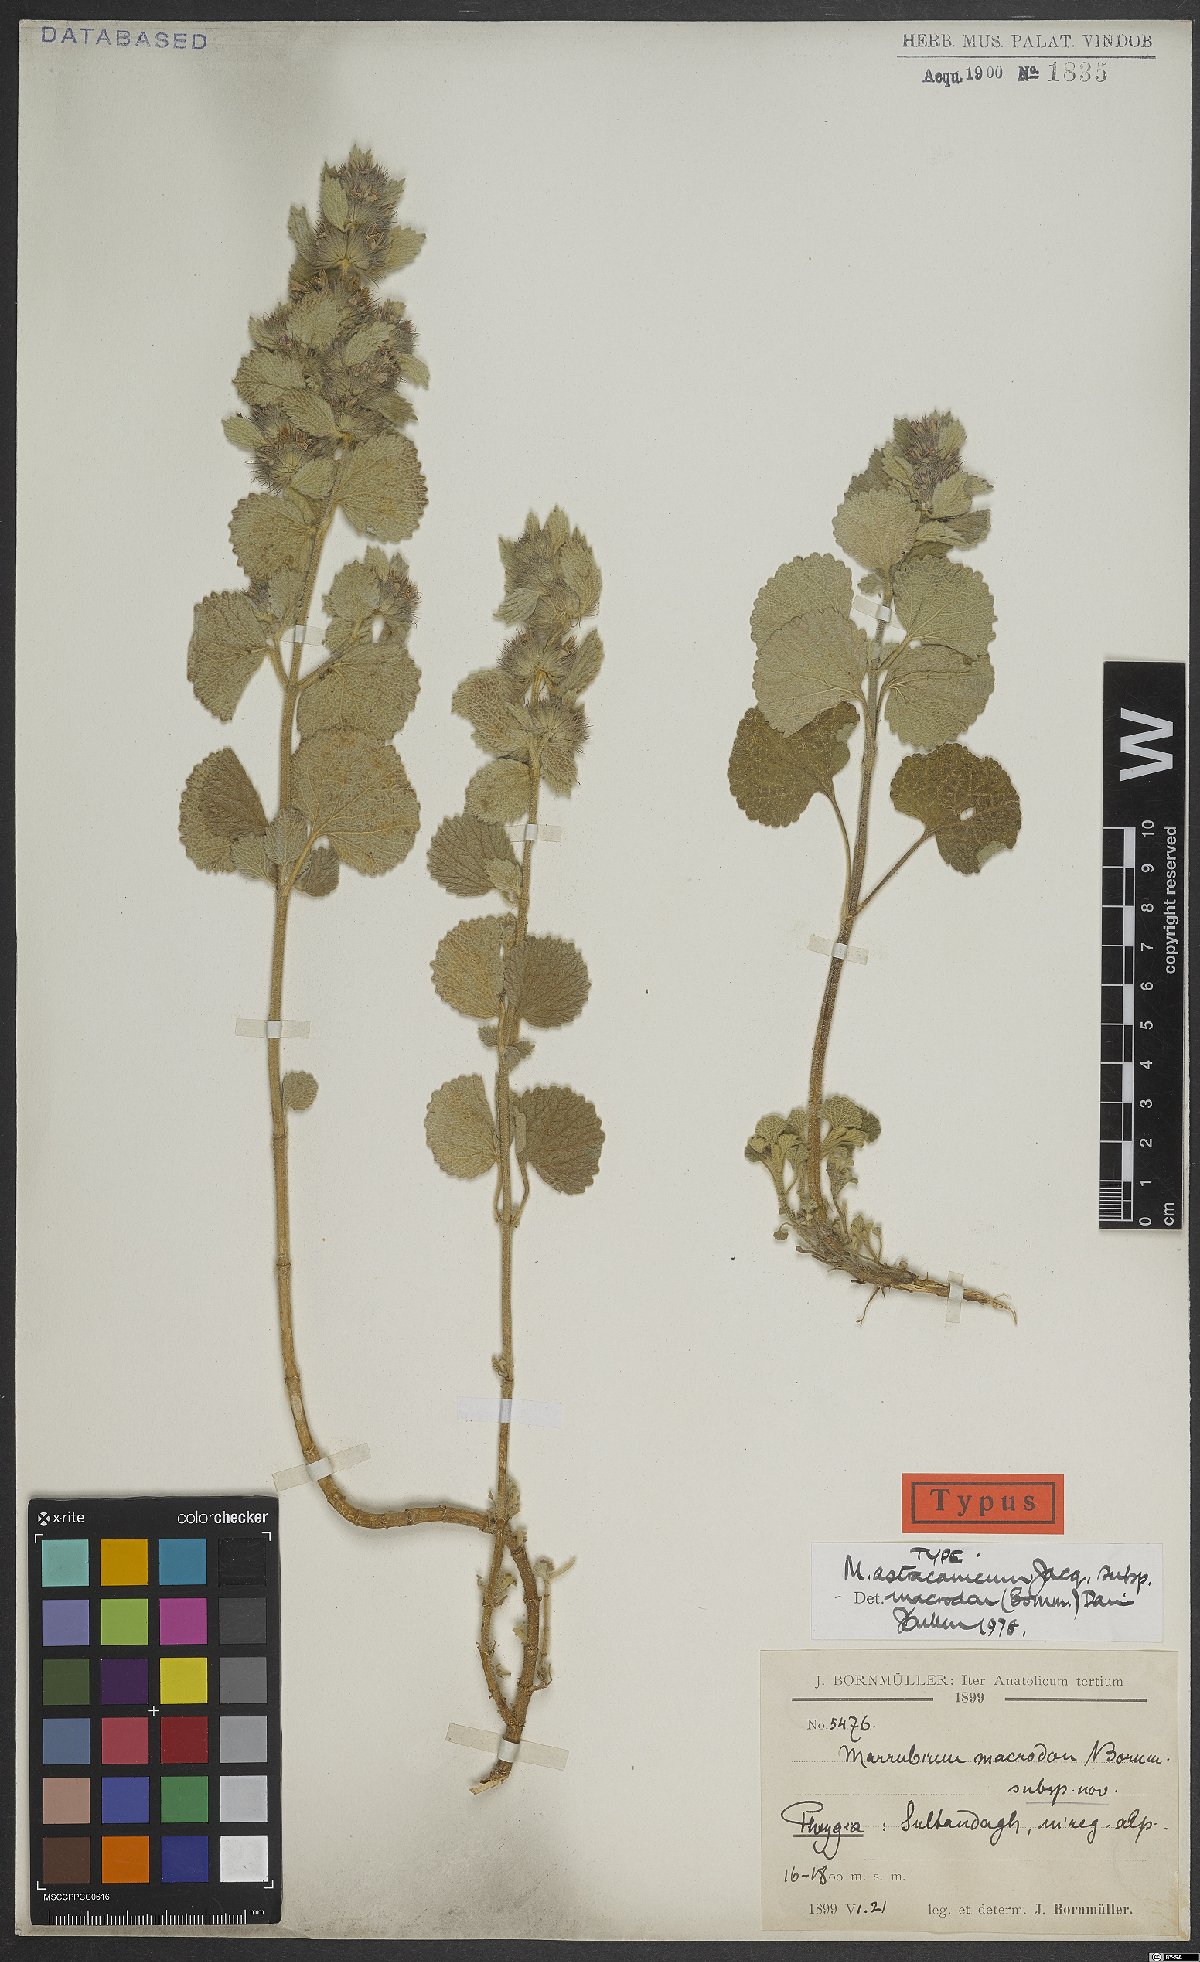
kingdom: Plantae
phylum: Tracheophyta
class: Magnoliopsida
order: Lamiales
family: Lamiaceae
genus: Marrubium
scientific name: Marrubium astracanicum
